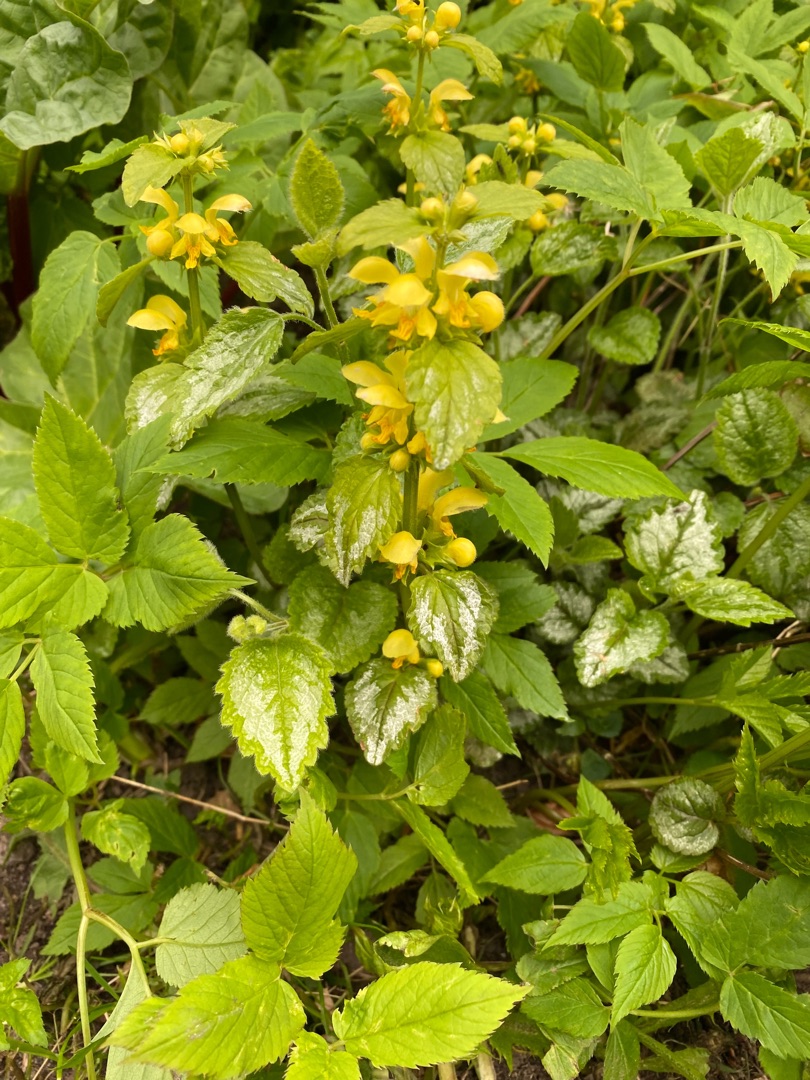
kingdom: Plantae
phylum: Tracheophyta
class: Magnoliopsida
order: Lamiales
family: Lamiaceae
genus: Lamium
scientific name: Lamium galeobdolon
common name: Have-guldnælde
